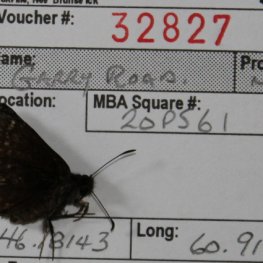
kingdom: Animalia
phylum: Arthropoda
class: Insecta
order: Lepidoptera
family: Hesperiidae
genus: Erynnis
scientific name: Erynnis icelus
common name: Dreamy Duskywing
